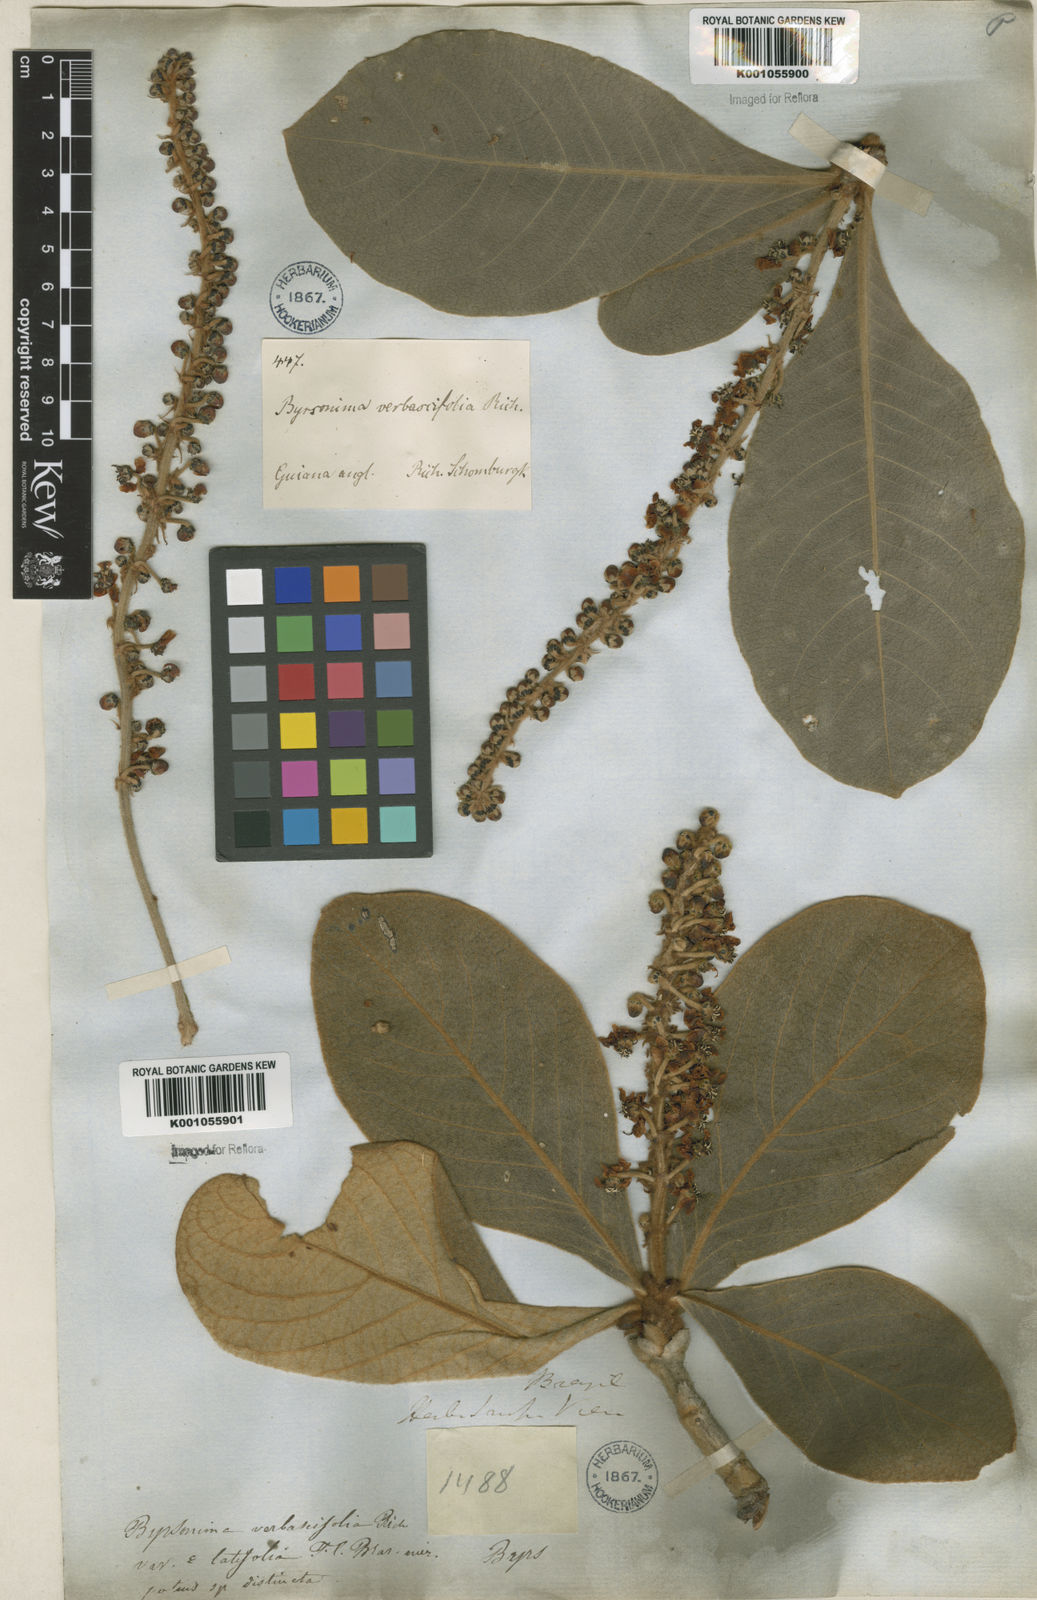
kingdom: Plantae
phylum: Tracheophyta
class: Magnoliopsida
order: Malpighiales
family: Malpighiaceae
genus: Byrsonima
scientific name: Byrsonima verbascifolia
